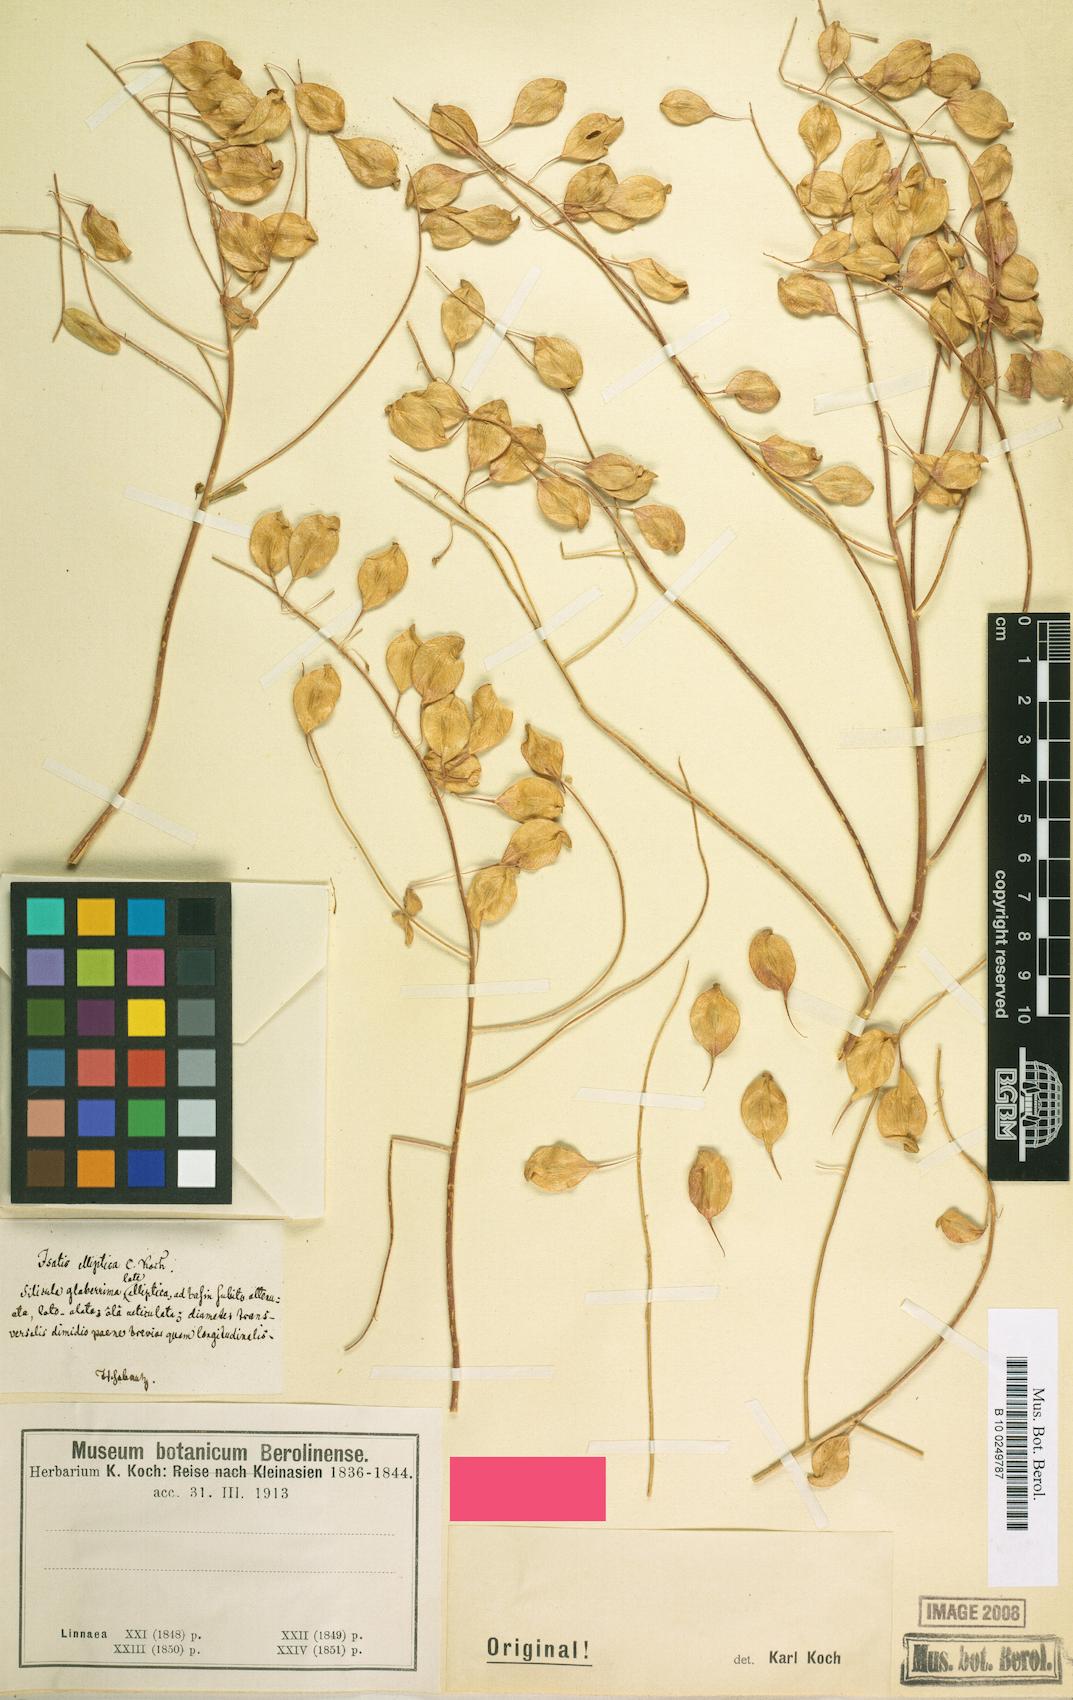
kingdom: Plantae
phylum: Tracheophyta
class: Magnoliopsida
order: Brassicales
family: Brassicaceae
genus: Isatis
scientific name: Isatis
